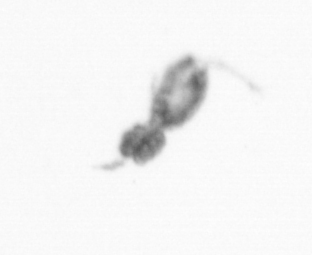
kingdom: Animalia
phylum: Arthropoda
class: Copepoda
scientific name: Copepoda
